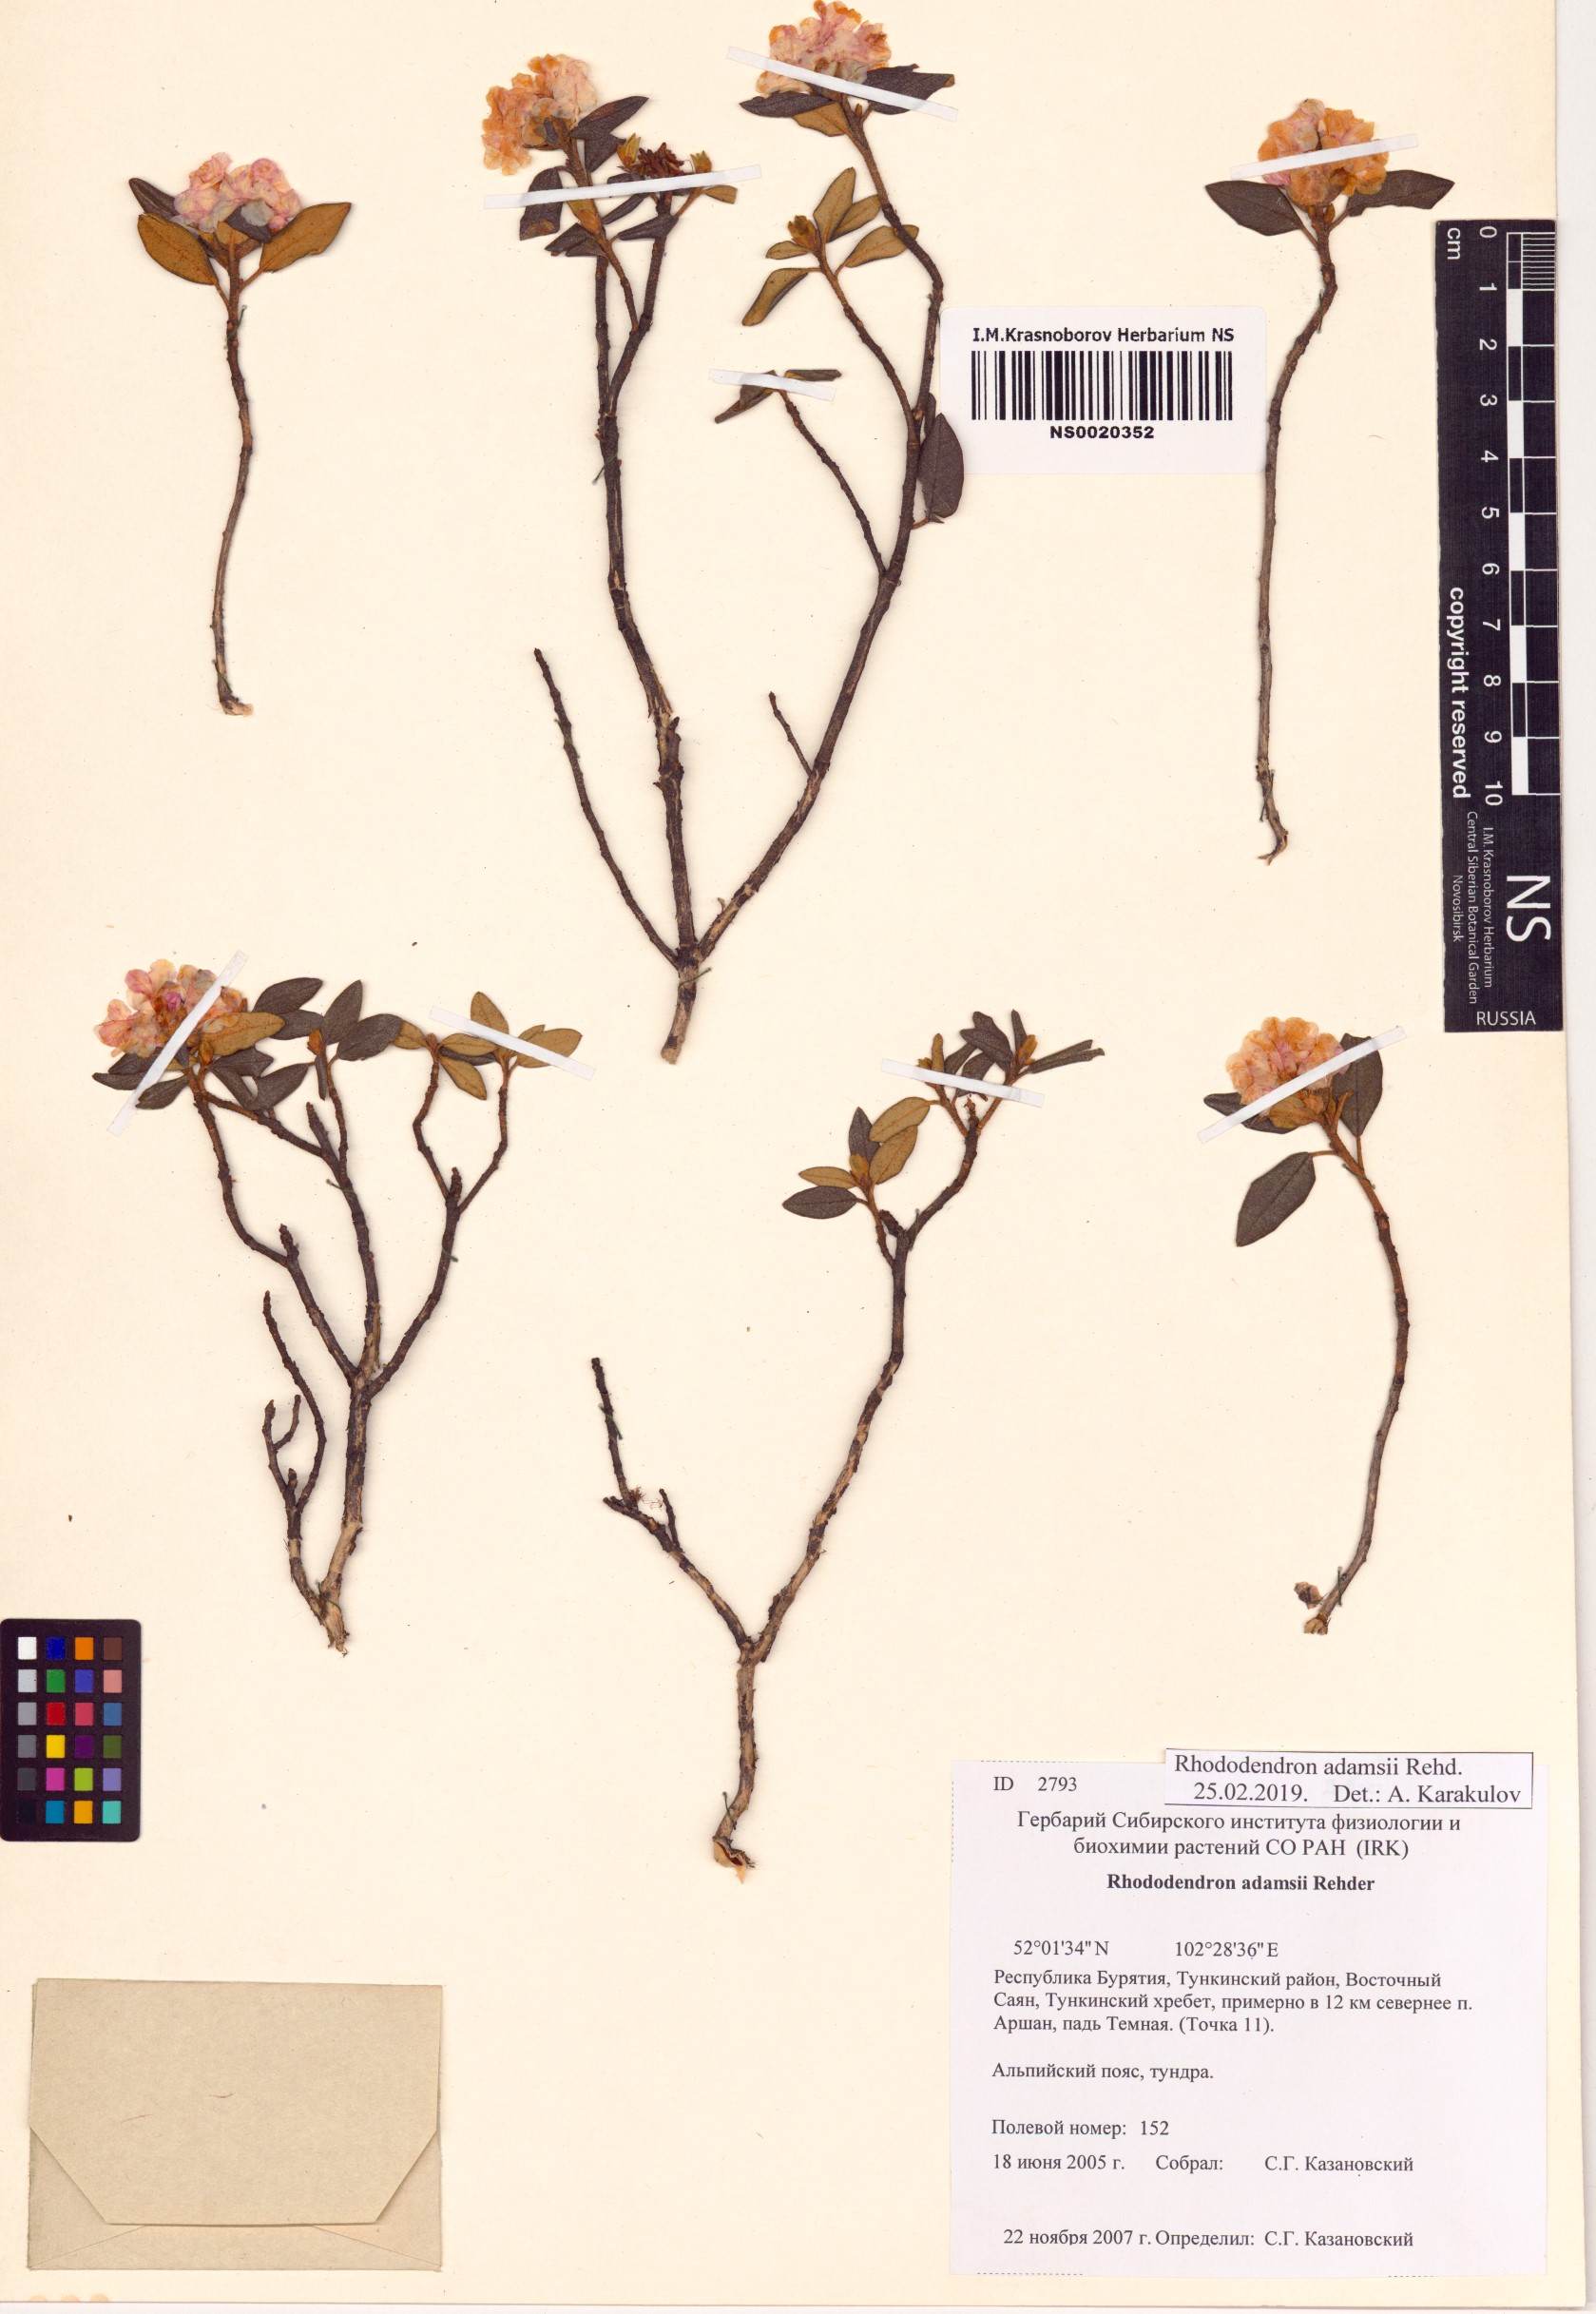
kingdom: Plantae
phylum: Tracheophyta
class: Magnoliopsida
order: Ericales
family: Ericaceae
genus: Rhododendron
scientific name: Rhododendron adamsii
